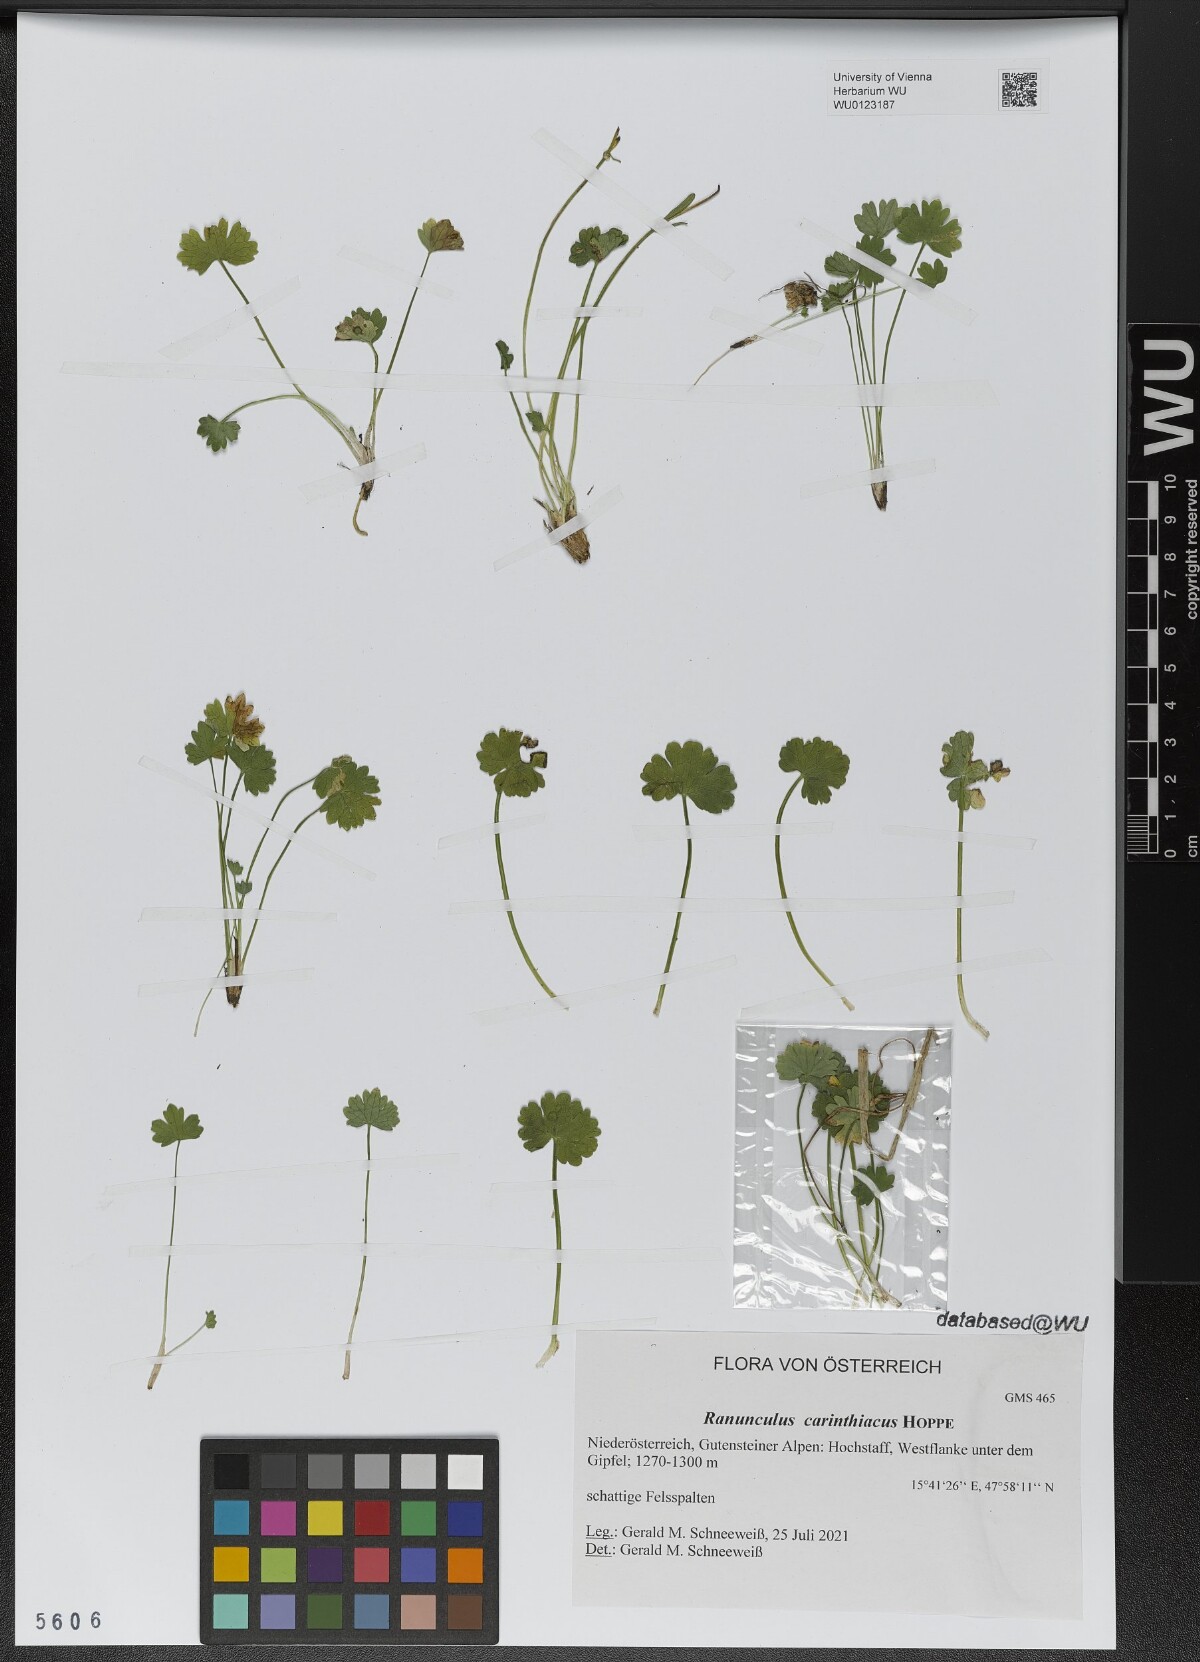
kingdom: Plantae
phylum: Tracheophyta
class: Magnoliopsida
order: Ranunculales
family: Ranunculaceae
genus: Ranunculus
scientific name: Ranunculus carinthiacus
